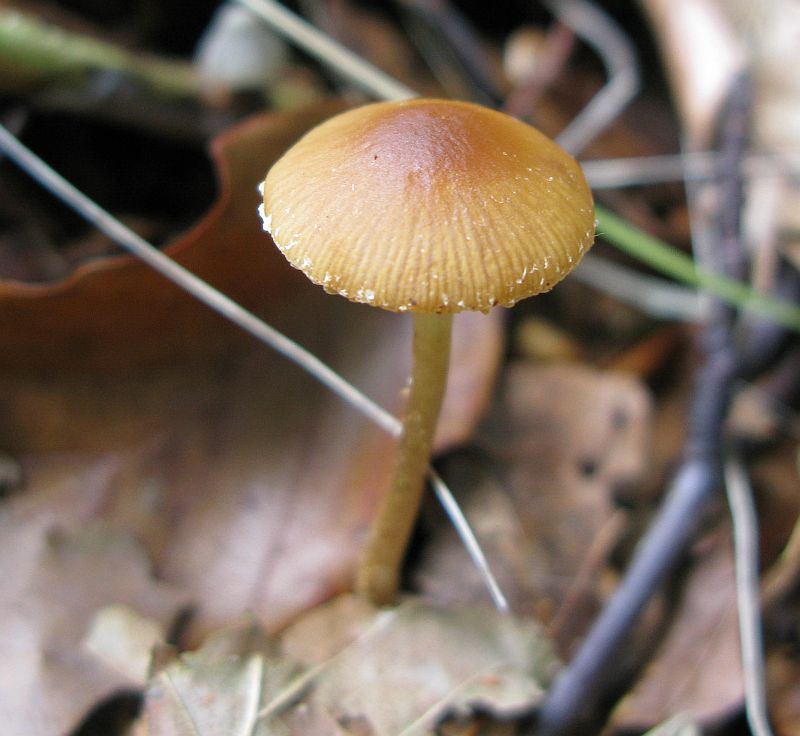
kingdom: Fungi
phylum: Basidiomycota
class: Agaricomycetes
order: Agaricales
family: Bolbitiaceae
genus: Conocybe
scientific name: Conocybe brunnea
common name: slør-dansehat
